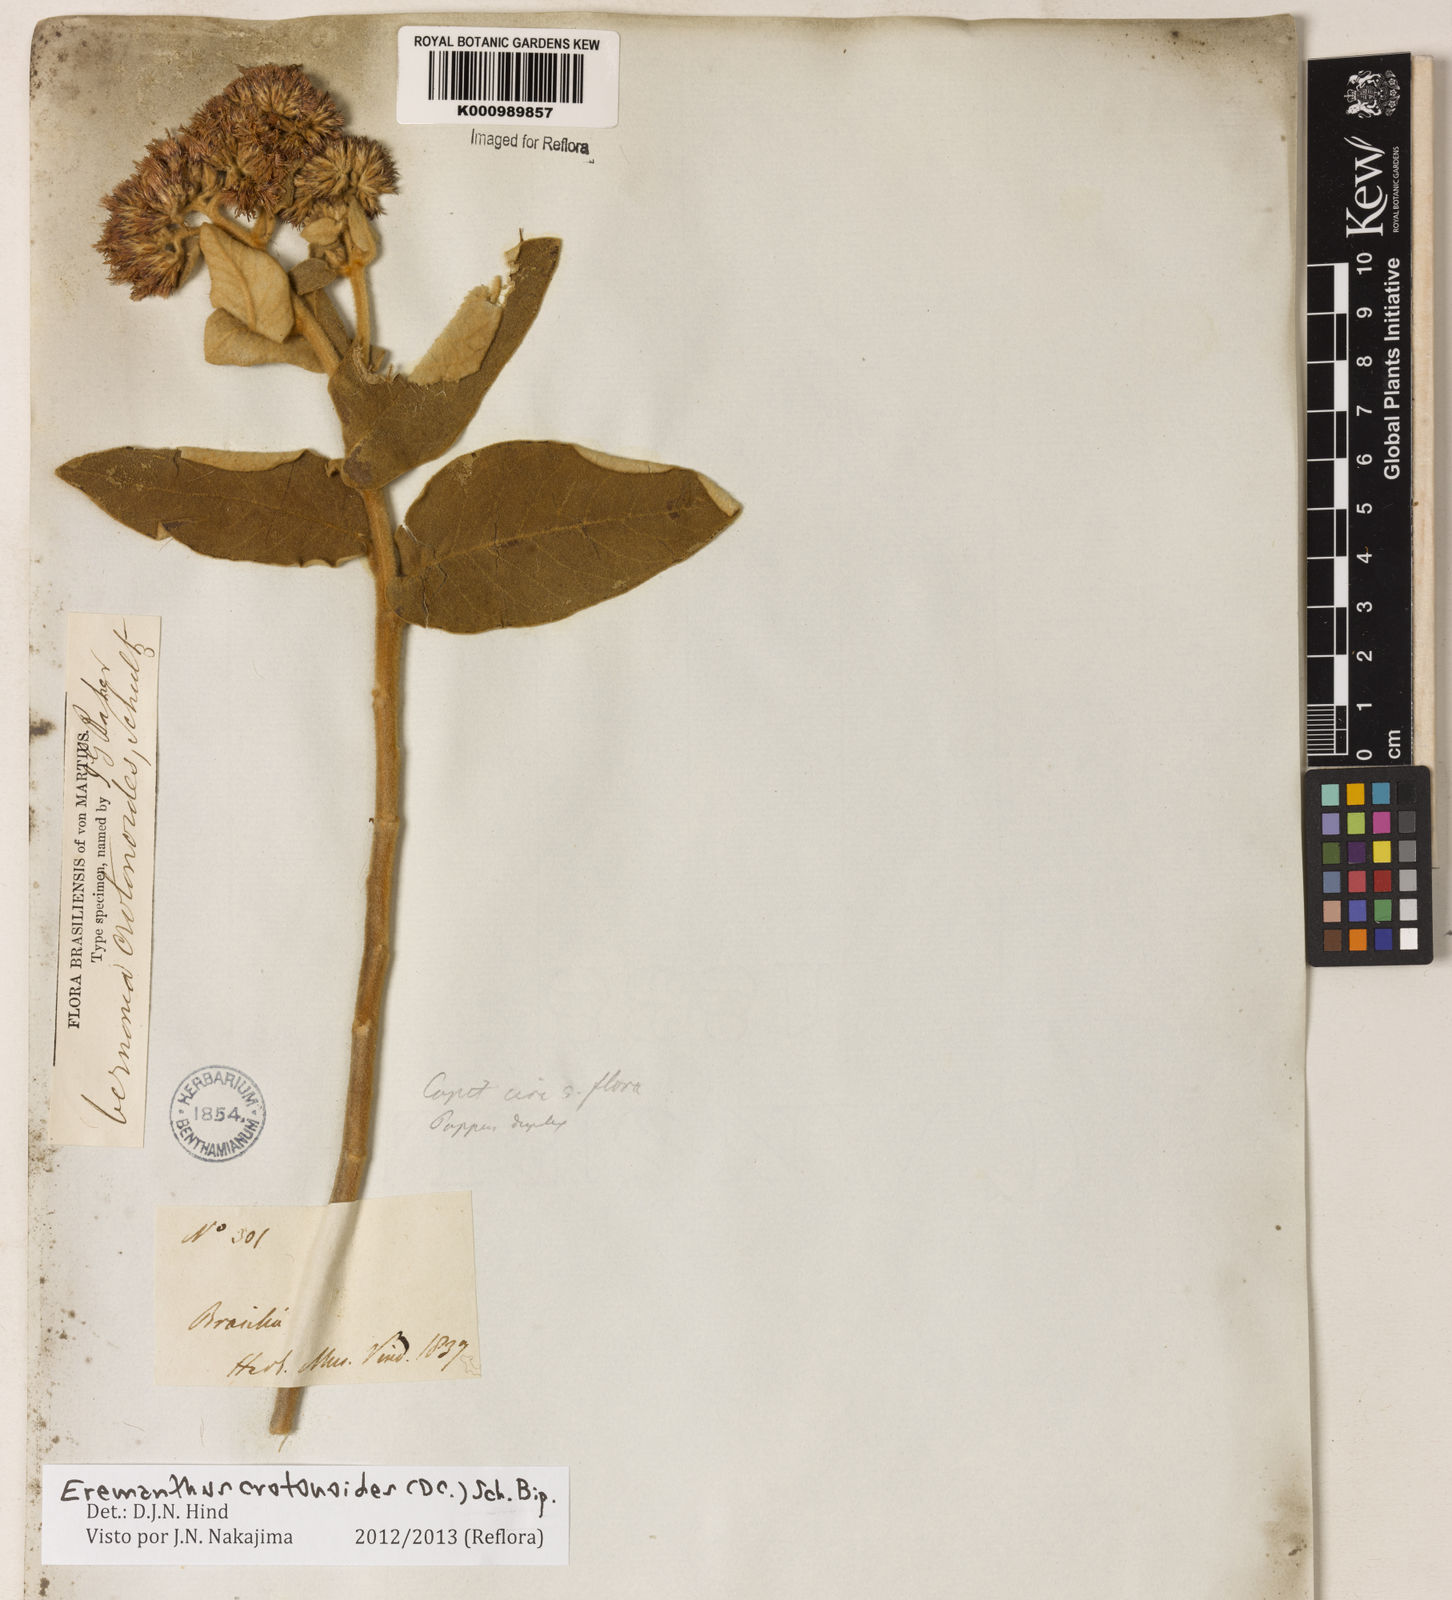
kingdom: Plantae
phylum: Tracheophyta
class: Magnoliopsida
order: Asterales
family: Asteraceae
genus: Eremanthus
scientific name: Eremanthus crotonoides
